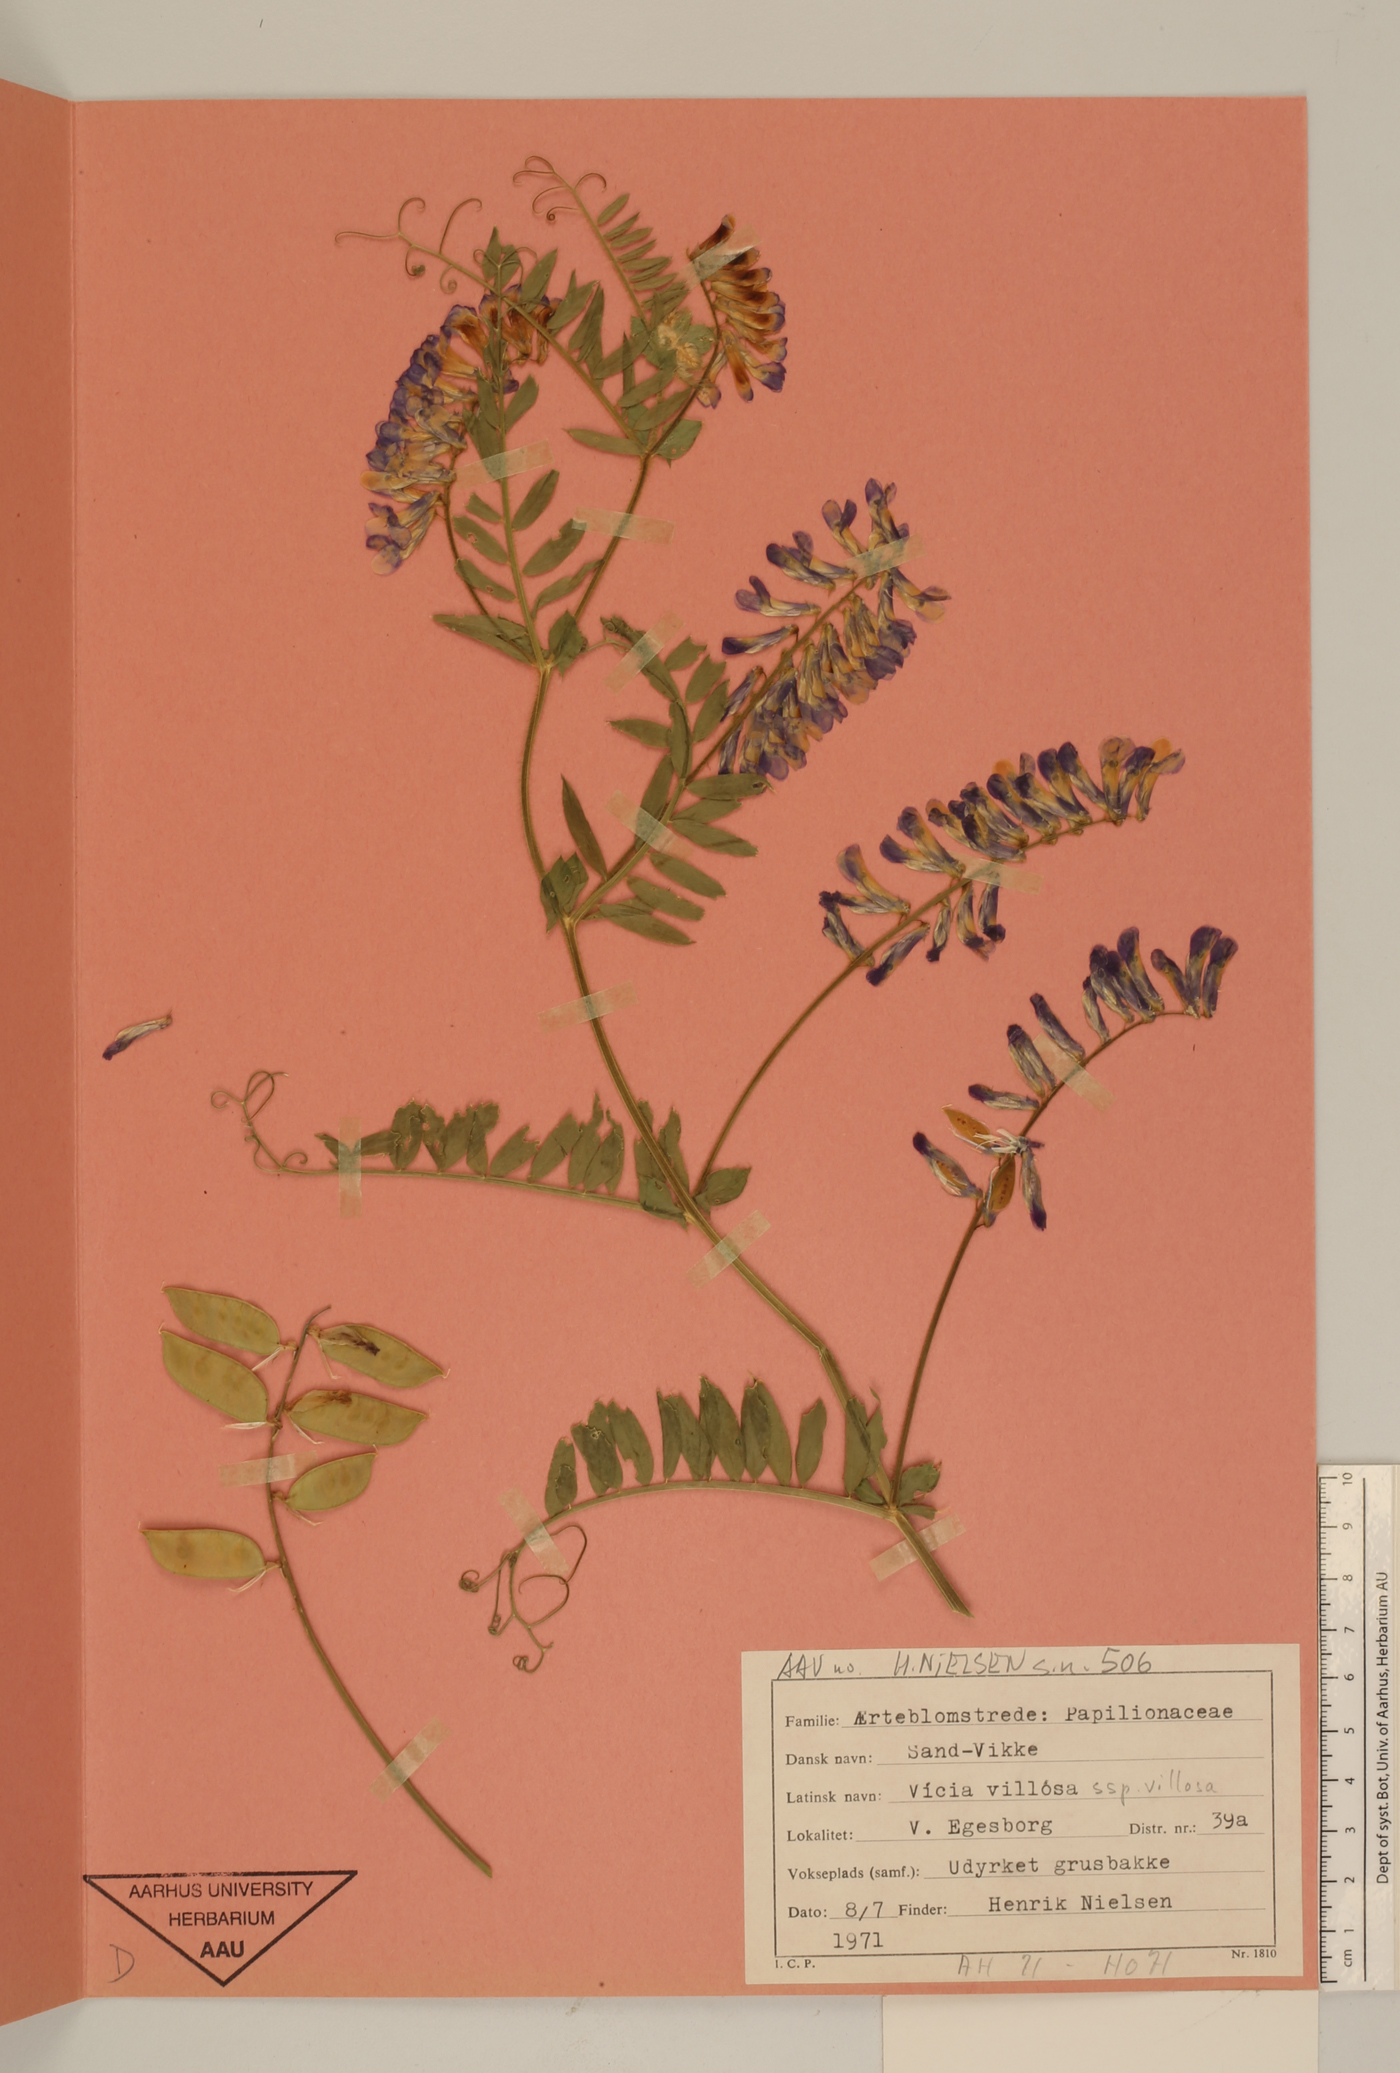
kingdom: Plantae
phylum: Tracheophyta
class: Magnoliopsida
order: Fabales
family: Fabaceae
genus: Vicia
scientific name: Vicia villosa
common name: Fodder vetch
